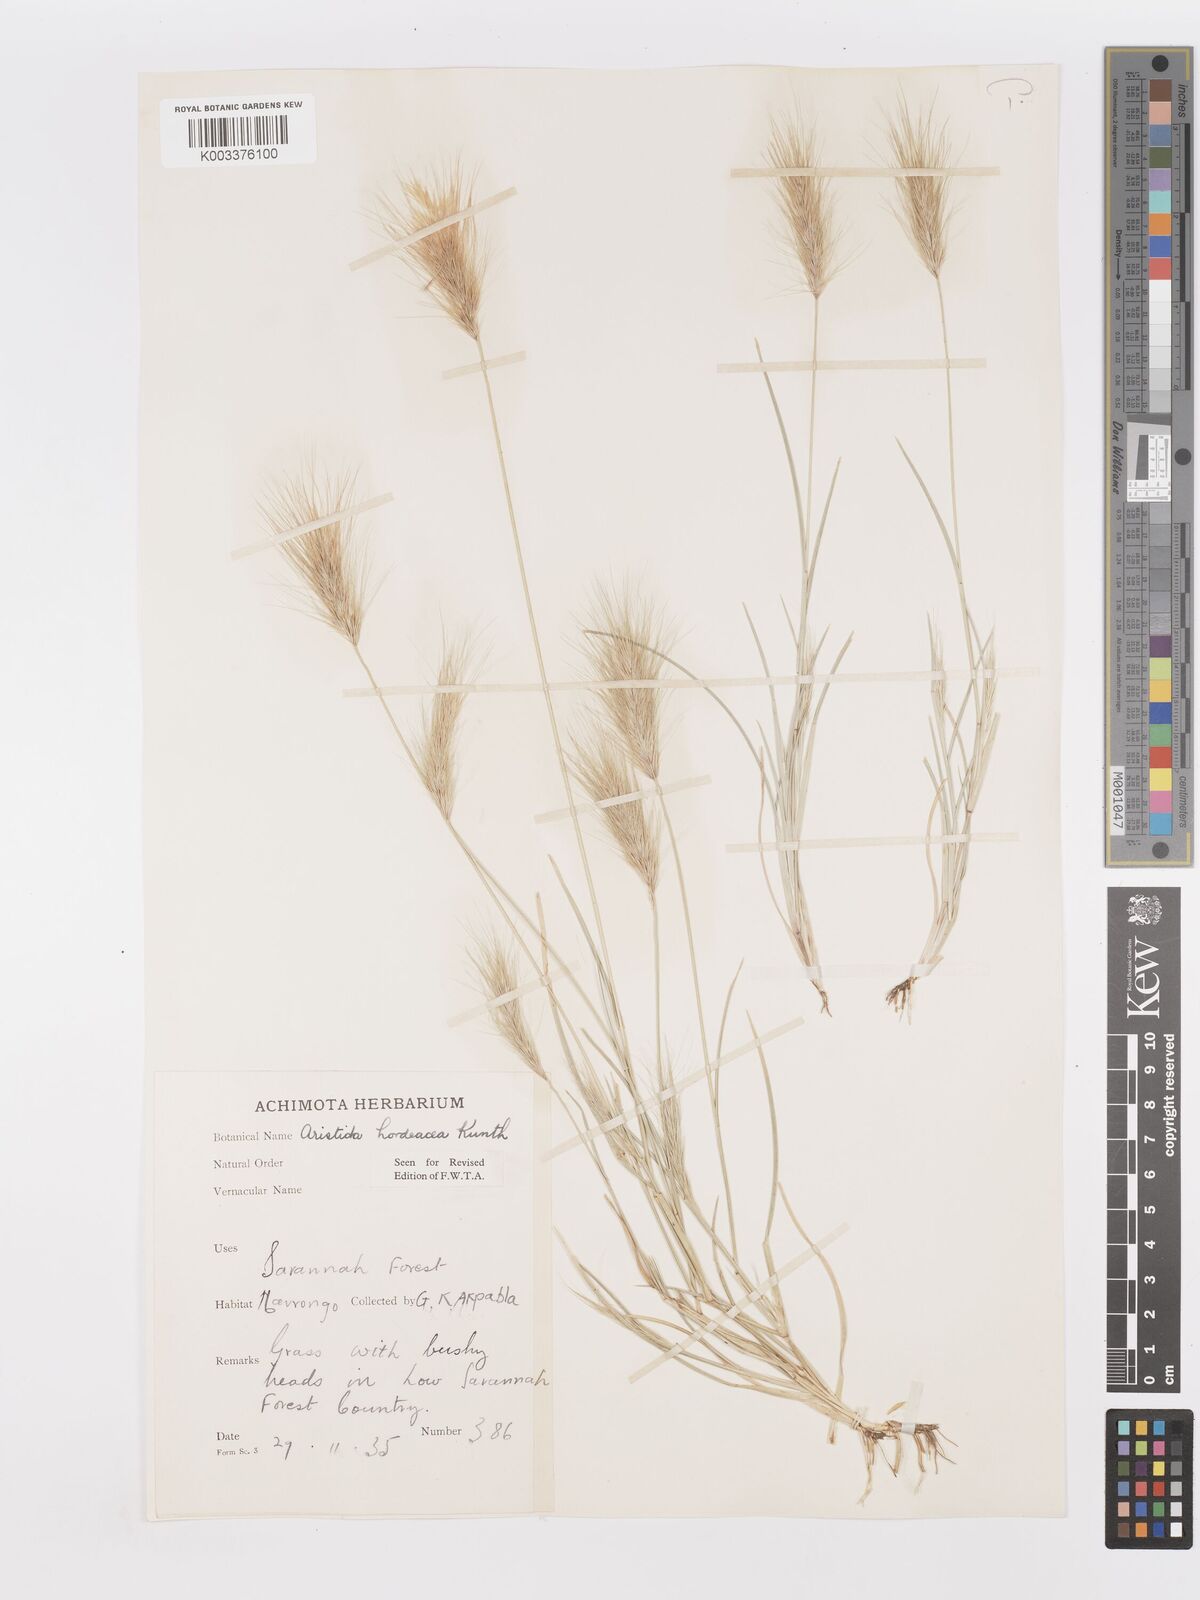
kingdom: Plantae
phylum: Tracheophyta
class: Liliopsida
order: Poales
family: Poaceae
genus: Aristida
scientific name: Aristida hordeacea
